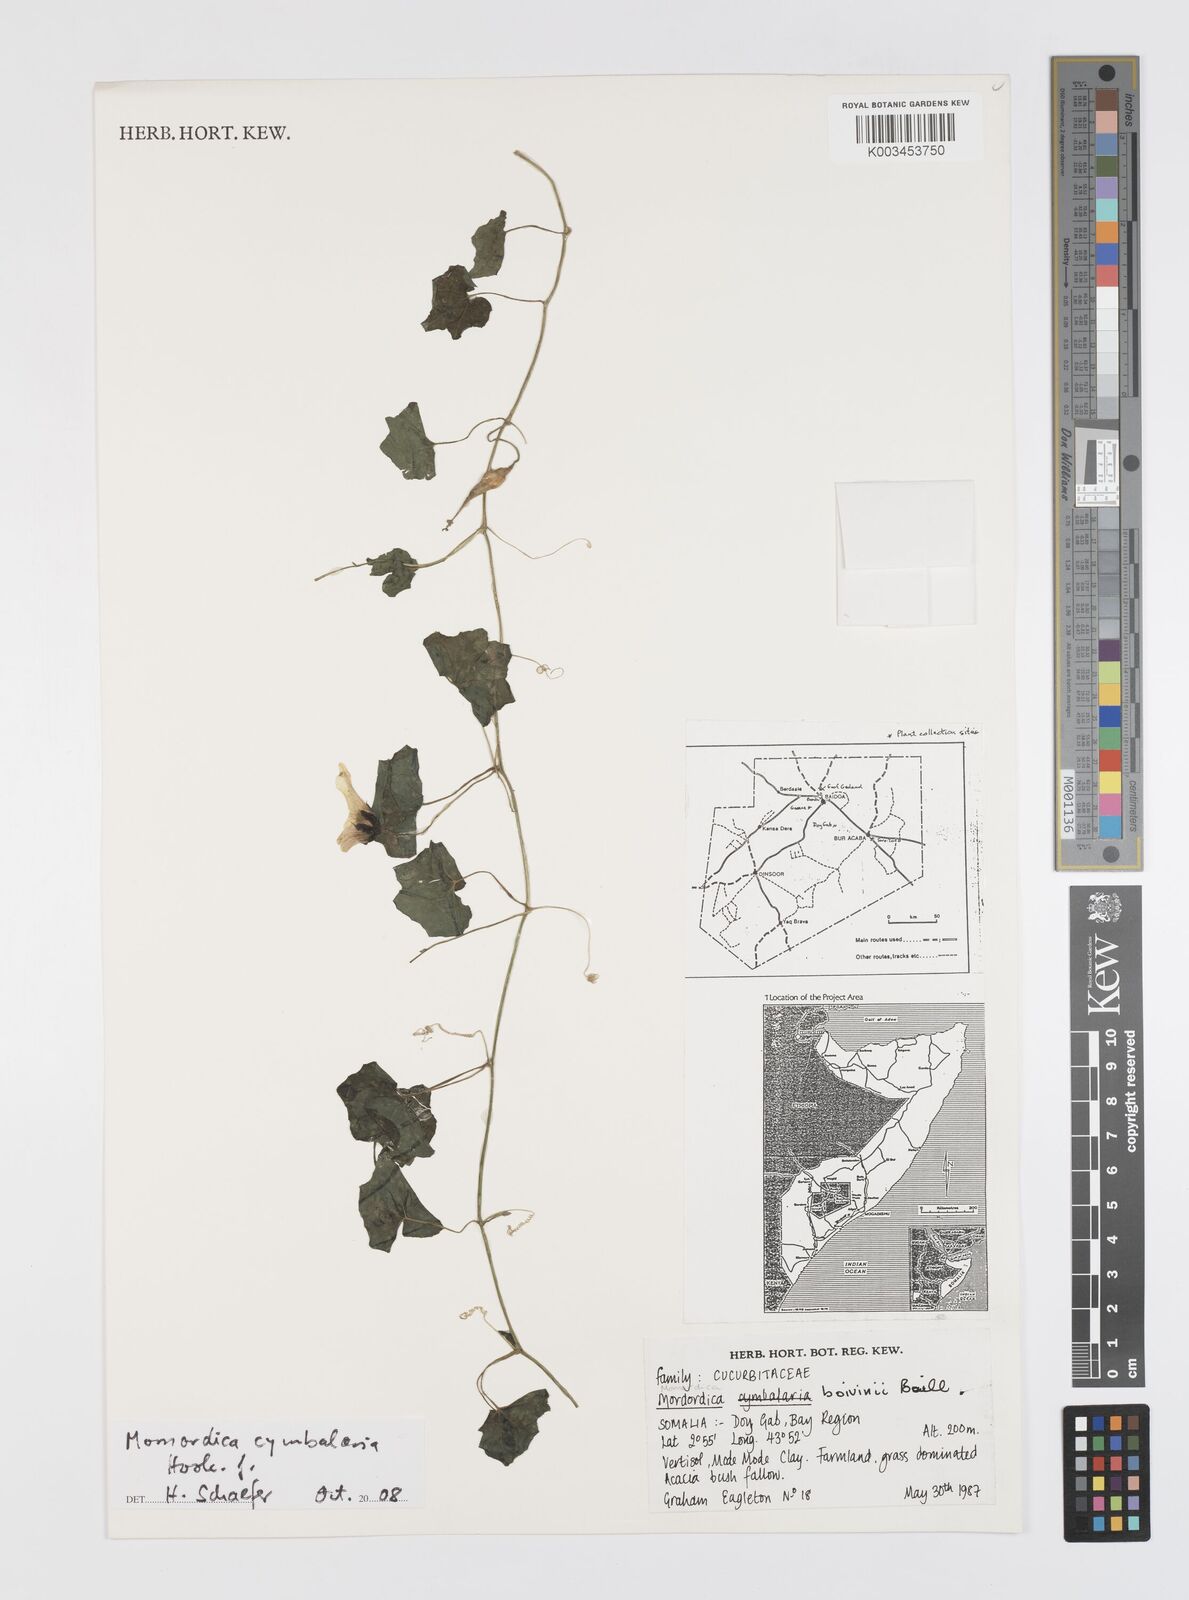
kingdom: Plantae
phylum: Tracheophyta
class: Magnoliopsida
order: Cucurbitales
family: Cucurbitaceae
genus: Momordica
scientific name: Momordica boivinii
